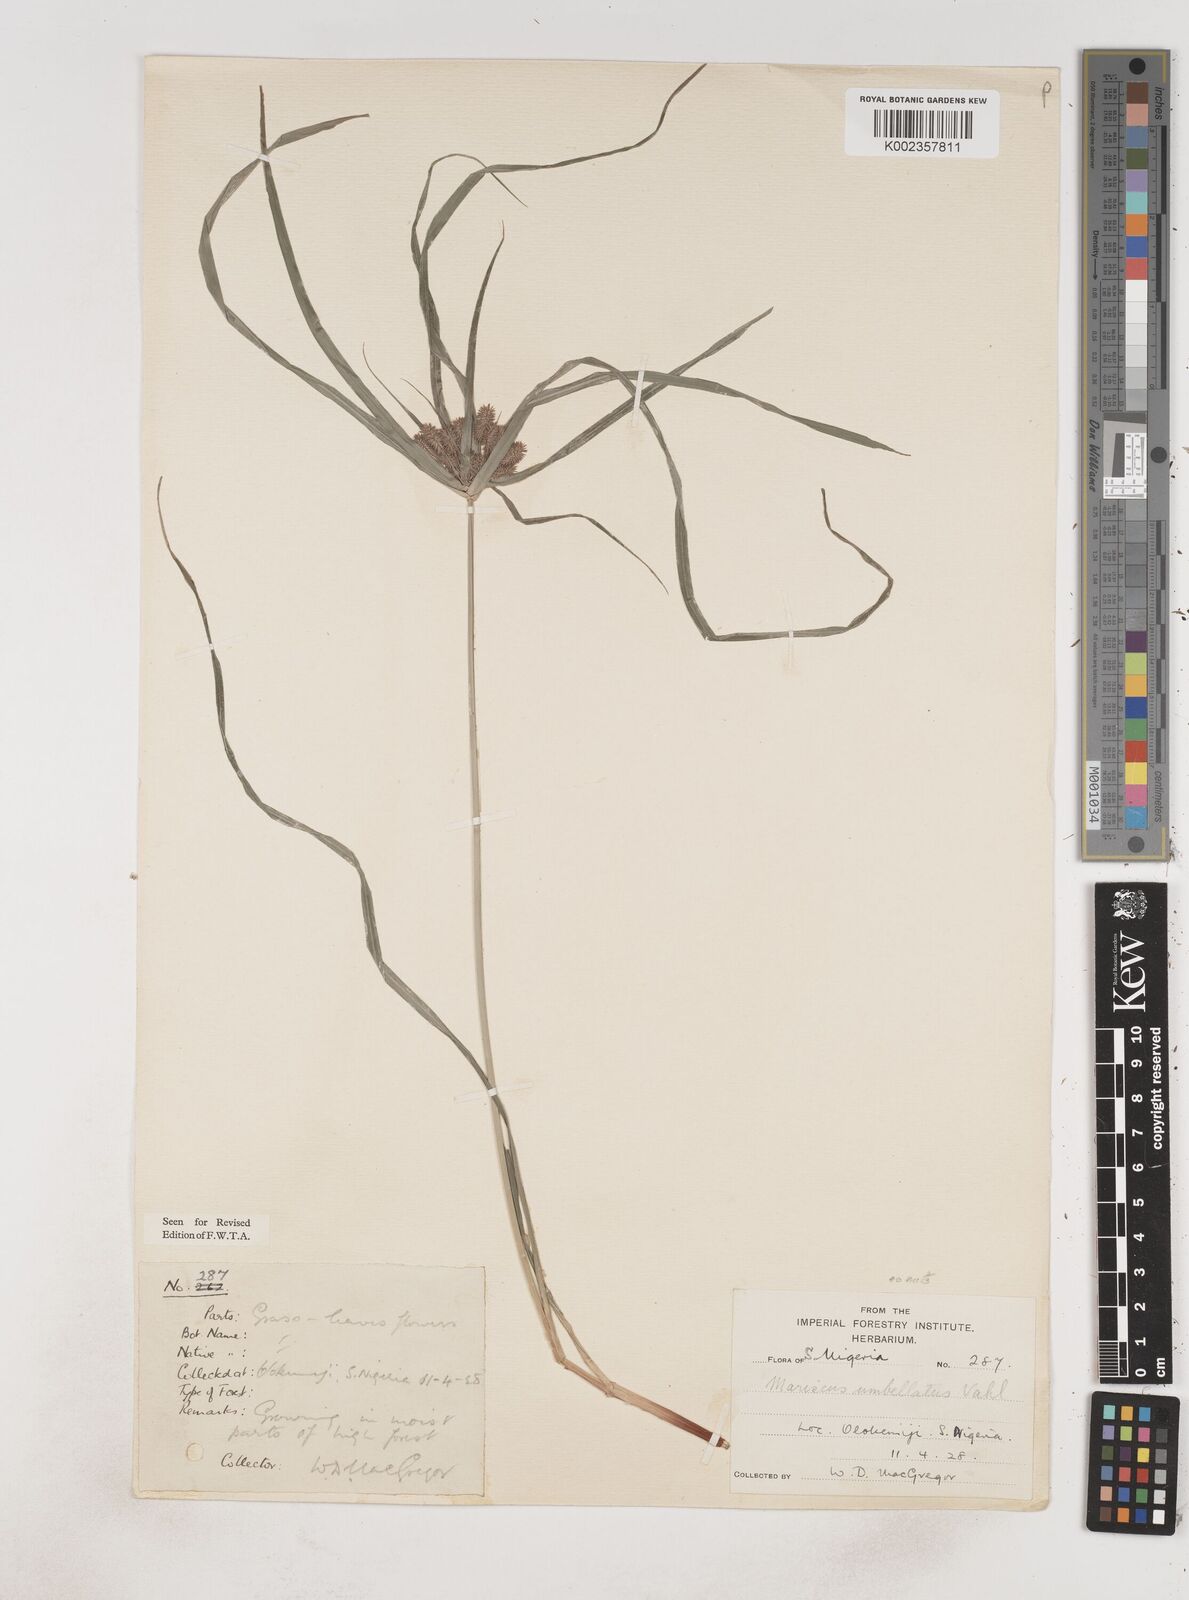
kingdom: Plantae
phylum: Tracheophyta
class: Liliopsida
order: Poales
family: Cyperaceae
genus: Cyperus
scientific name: Cyperus sublimis
